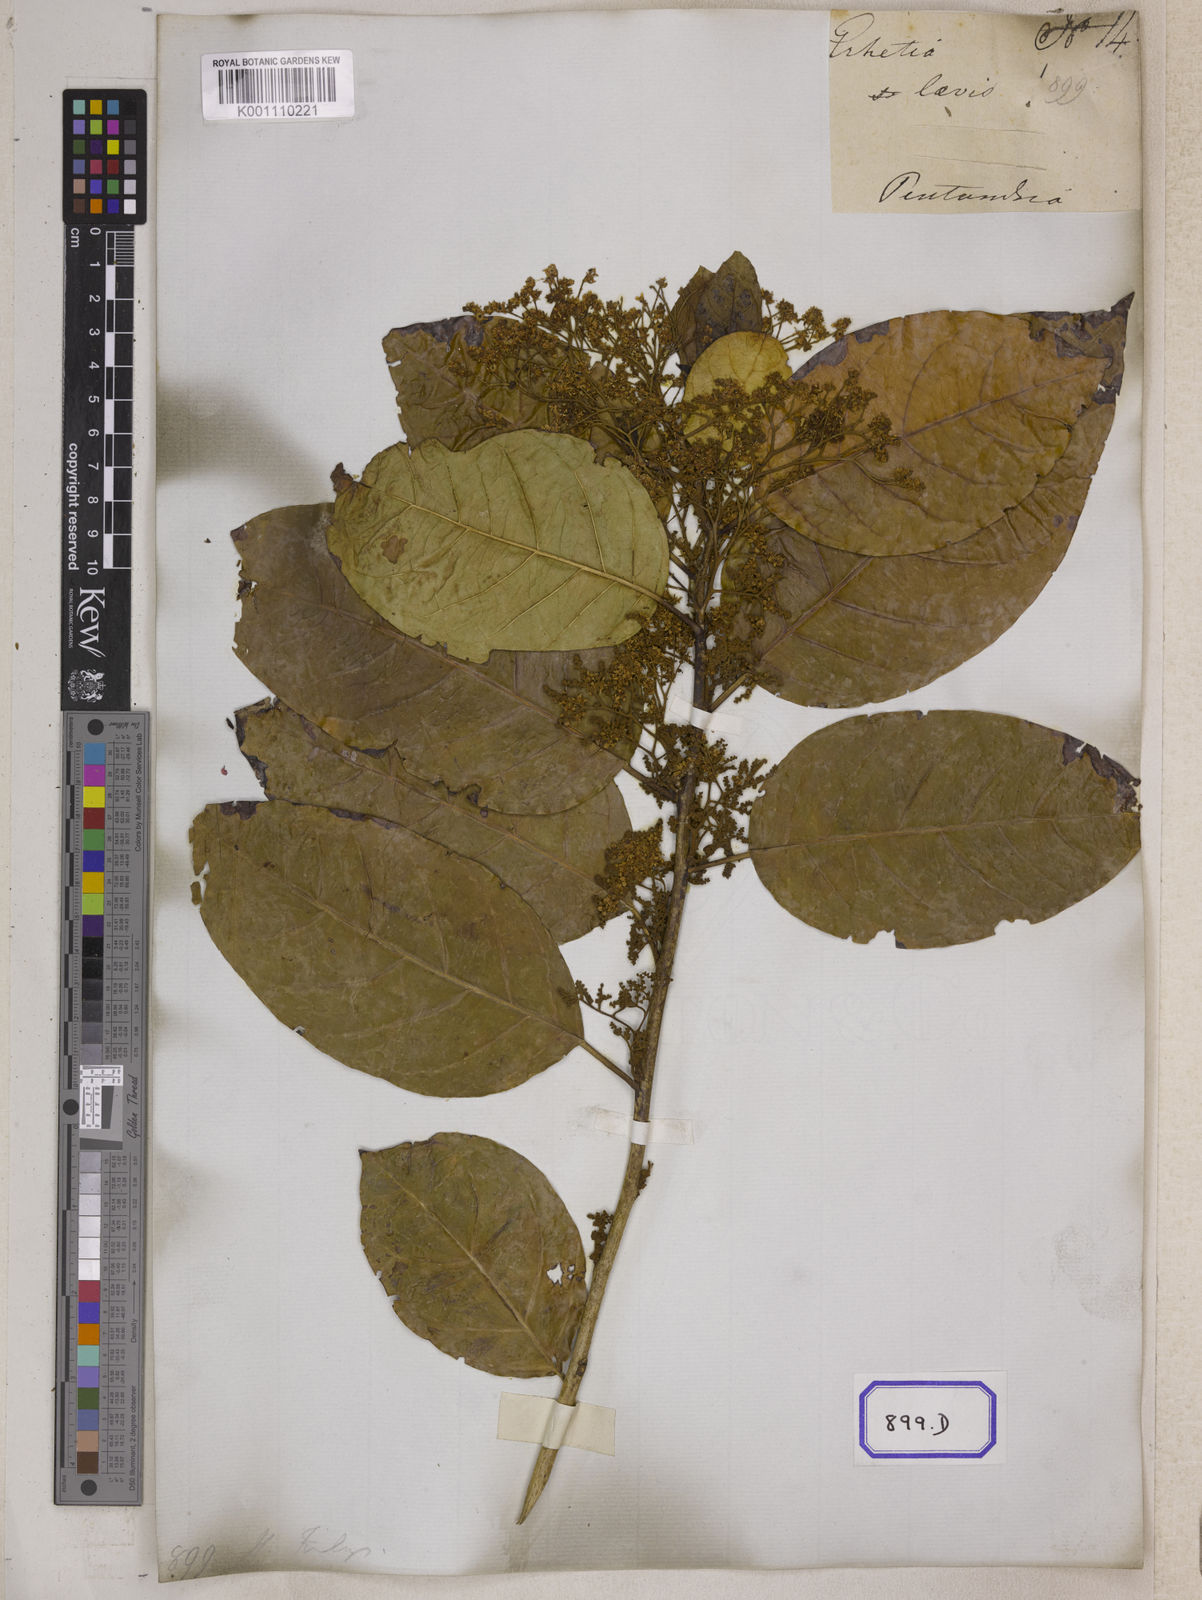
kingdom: Plantae
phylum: Tracheophyta
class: Magnoliopsida
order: Boraginales
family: Ehretiaceae
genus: Ehretia
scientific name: Ehretia laevis
